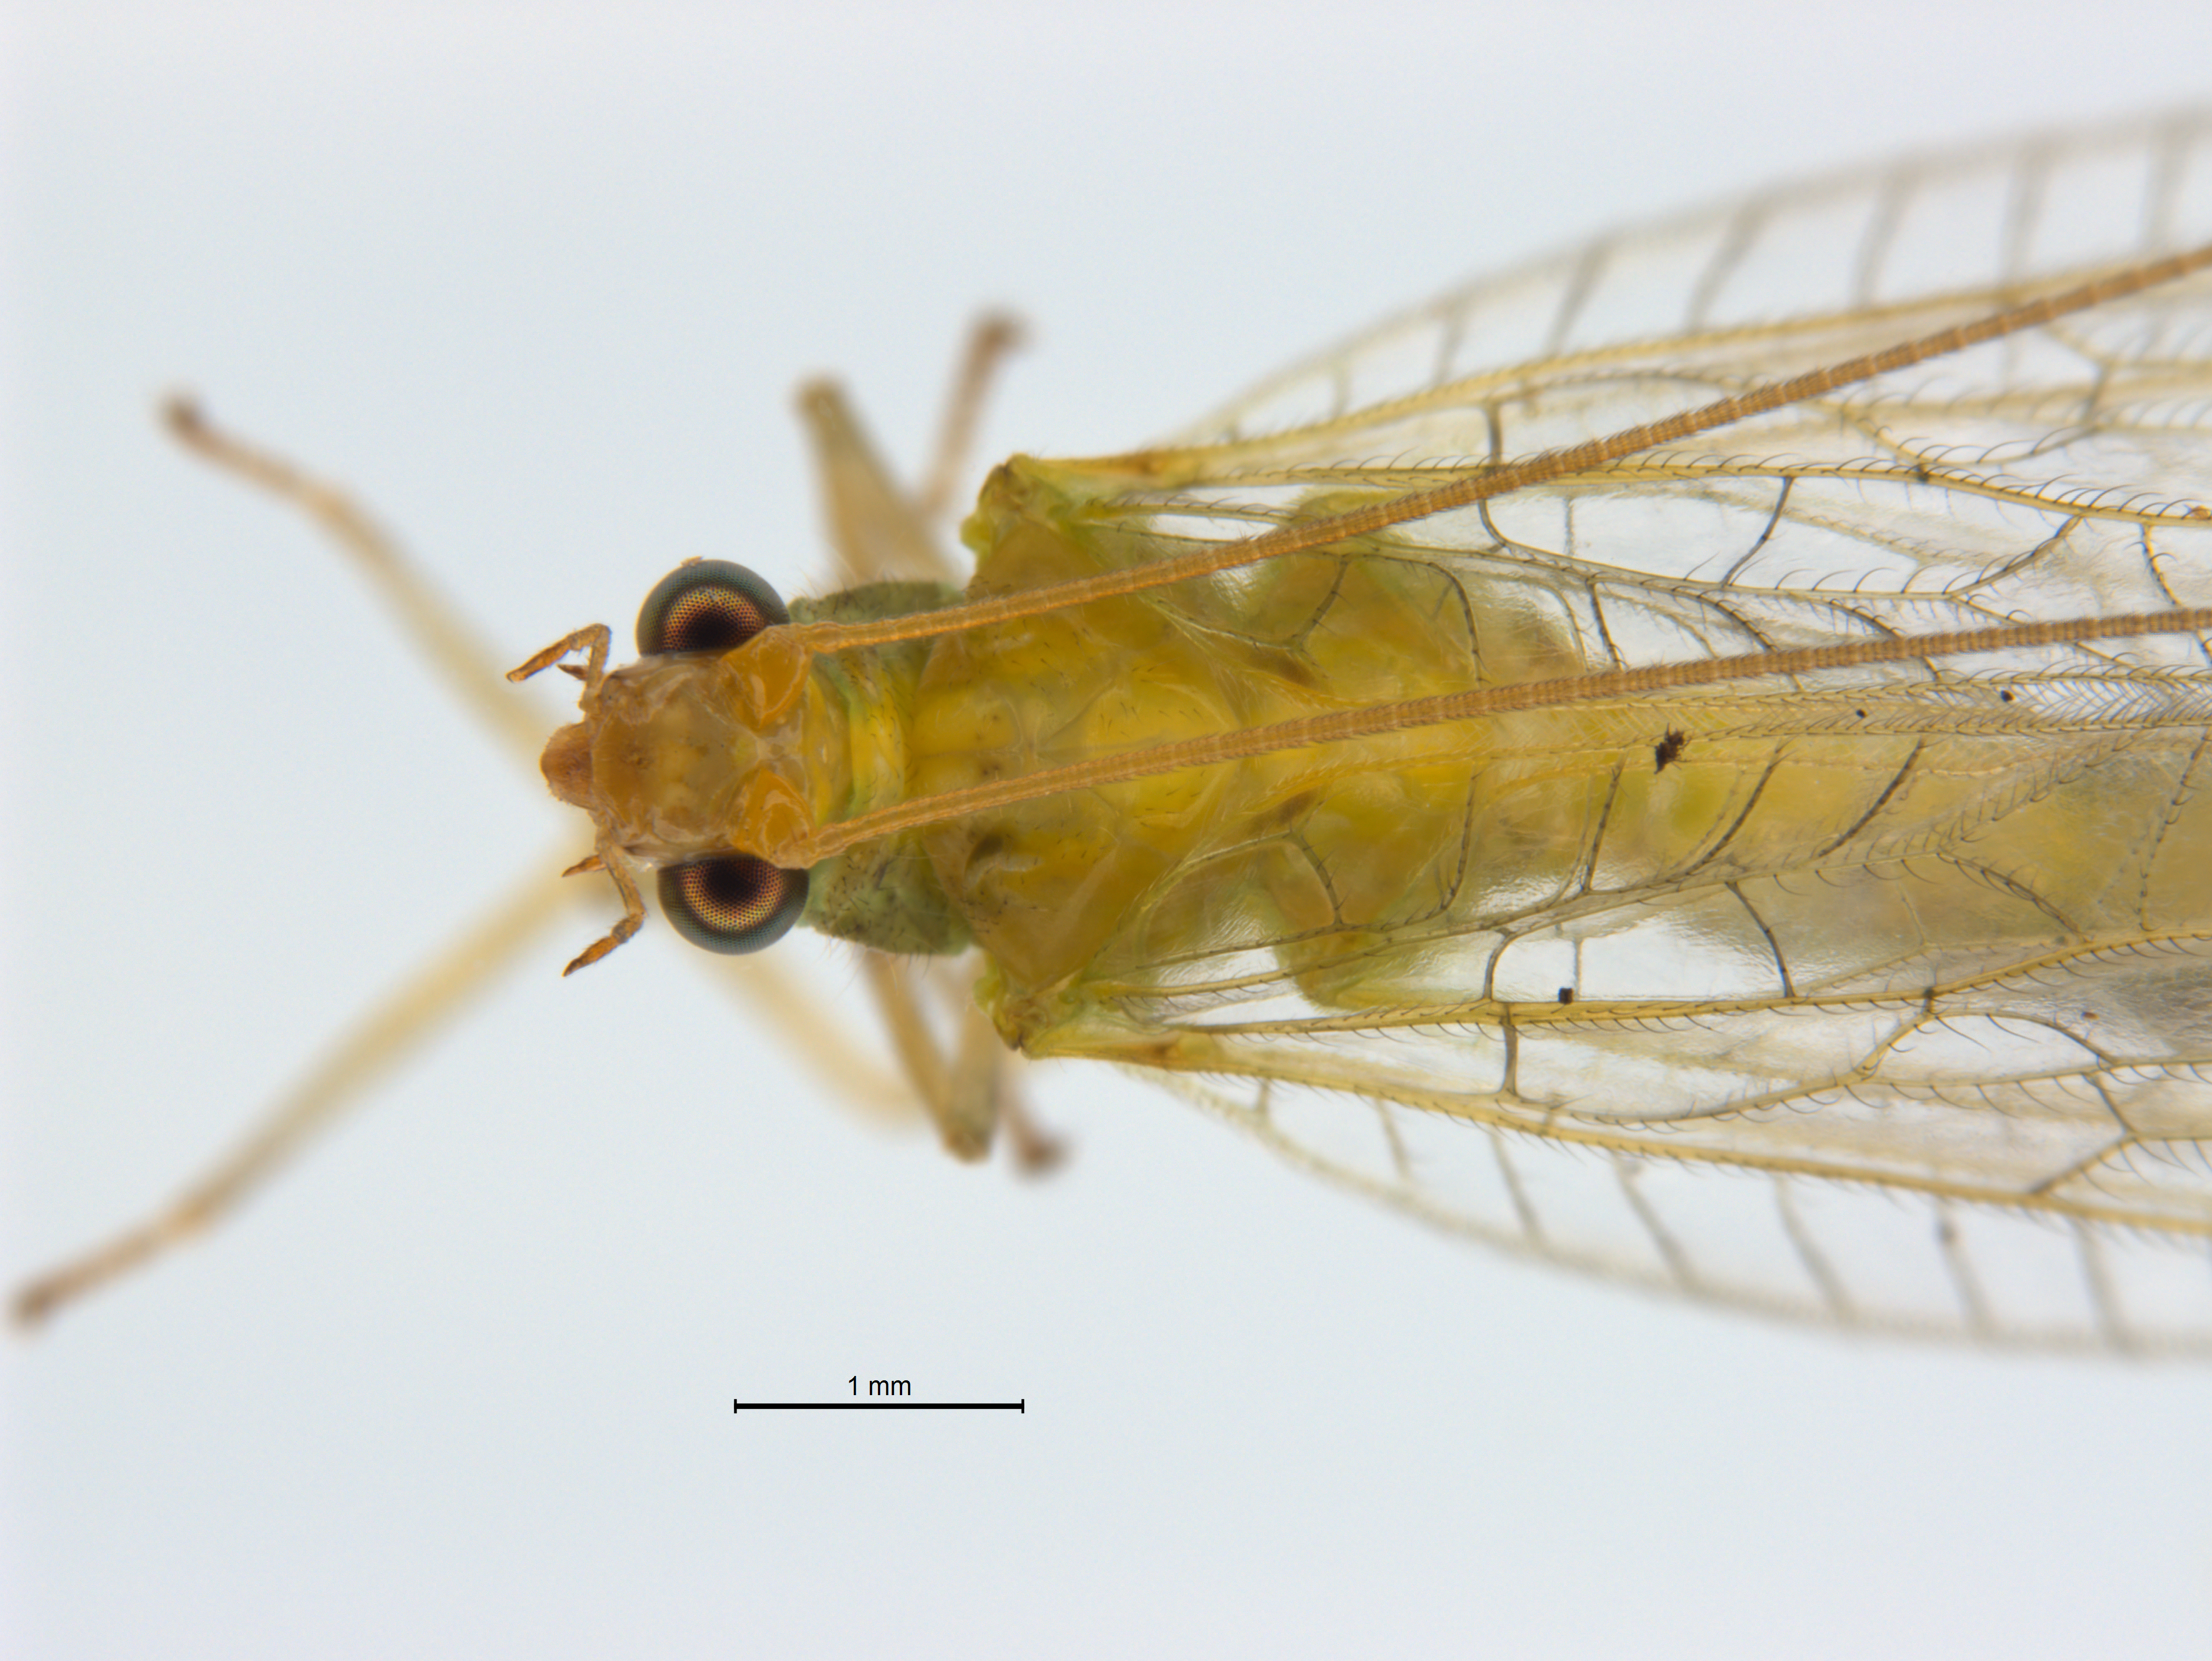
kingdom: Animalia
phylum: Arthropoda
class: Insecta
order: Neuroptera
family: Chrysopidae
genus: Mallada
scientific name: Mallada basalis
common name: Green lacewing
